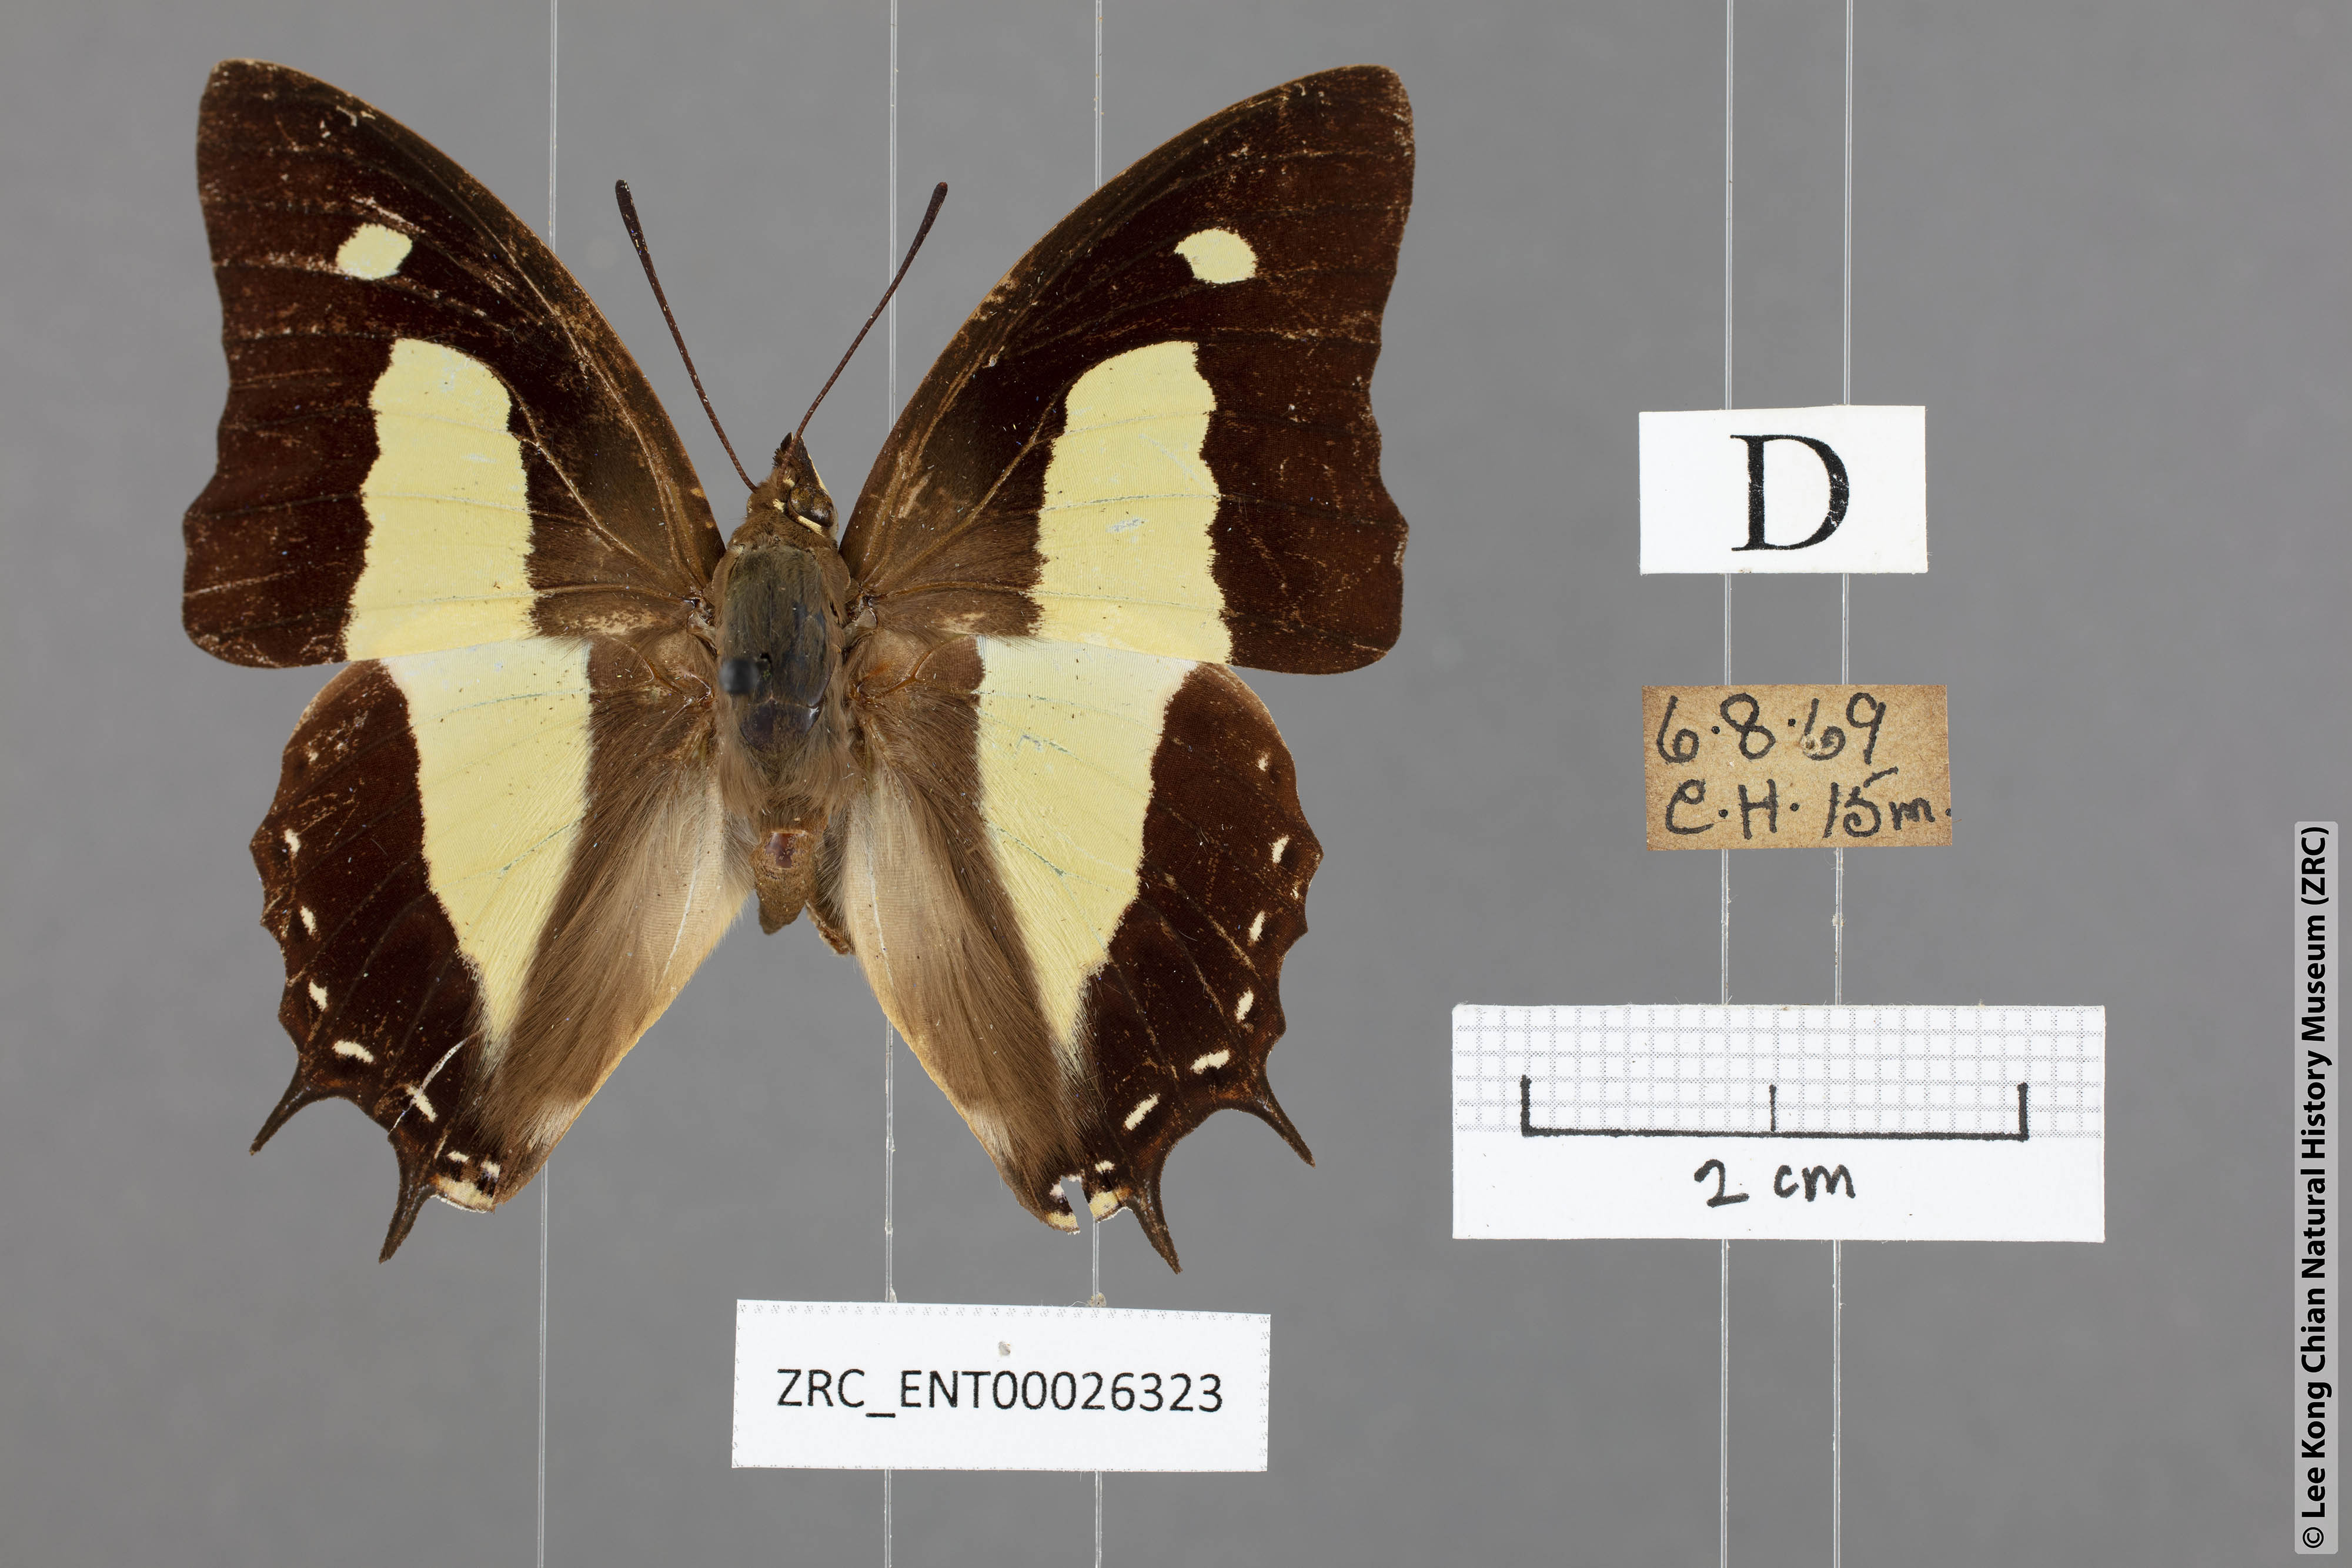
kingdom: Animalia
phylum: Arthropoda
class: Insecta
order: Lepidoptera
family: Nymphalidae
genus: Polyura
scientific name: Polyura athamas
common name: Common nawab
